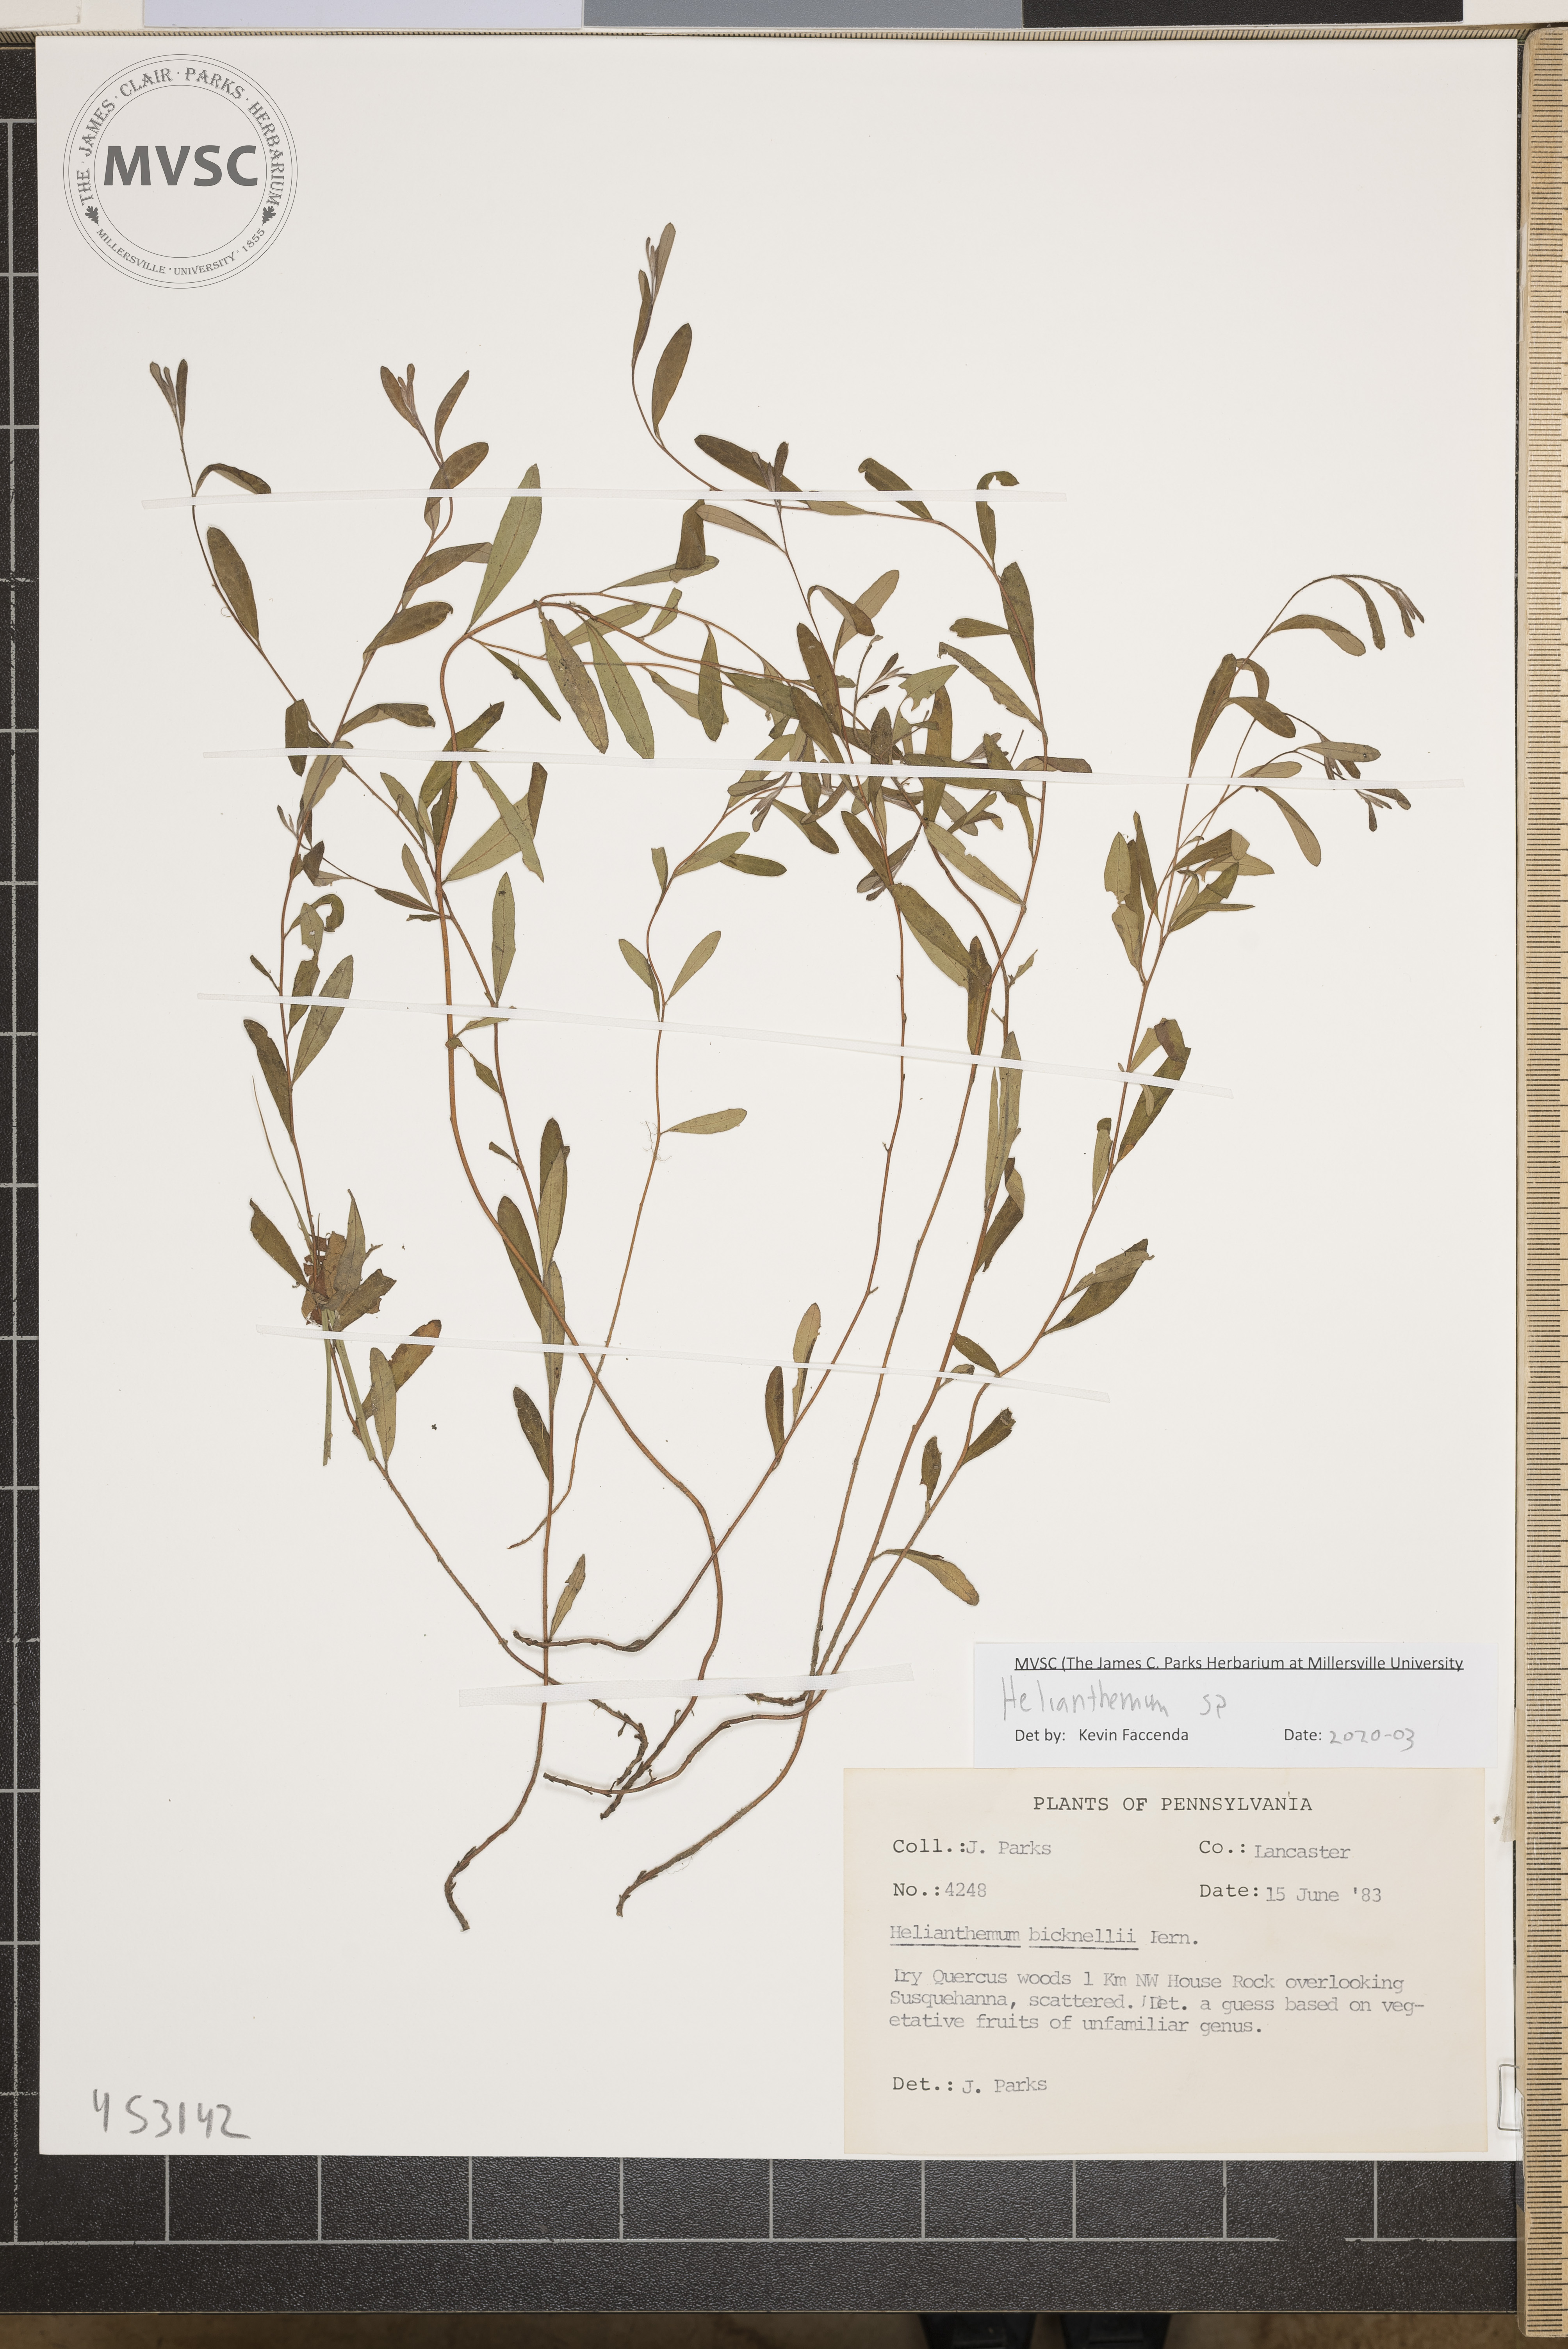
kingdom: Plantae
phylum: Tracheophyta
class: Magnoliopsida
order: Malvales
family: Cistaceae
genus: Helianthemum
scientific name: Helianthemum
